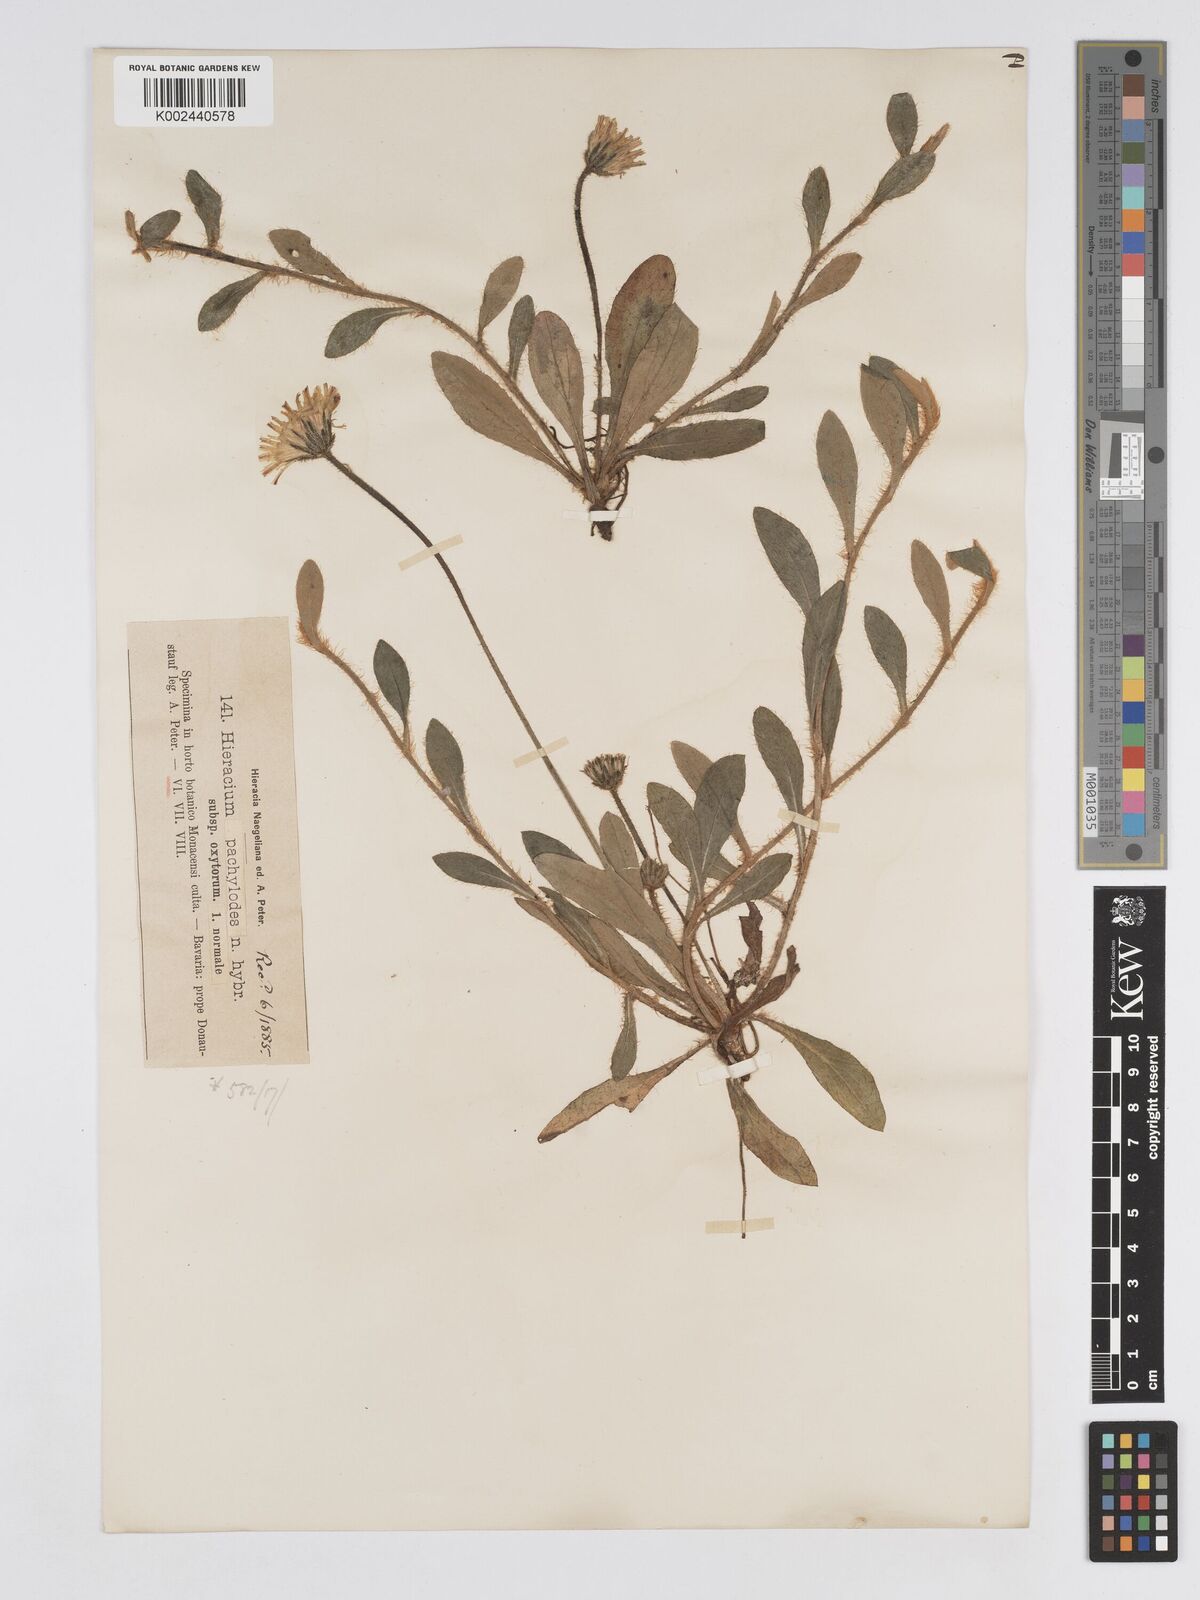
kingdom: Plantae
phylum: Tracheophyta
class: Magnoliopsida
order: Asterales
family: Asteraceae
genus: Pilosella
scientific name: Pilosella longisquama
